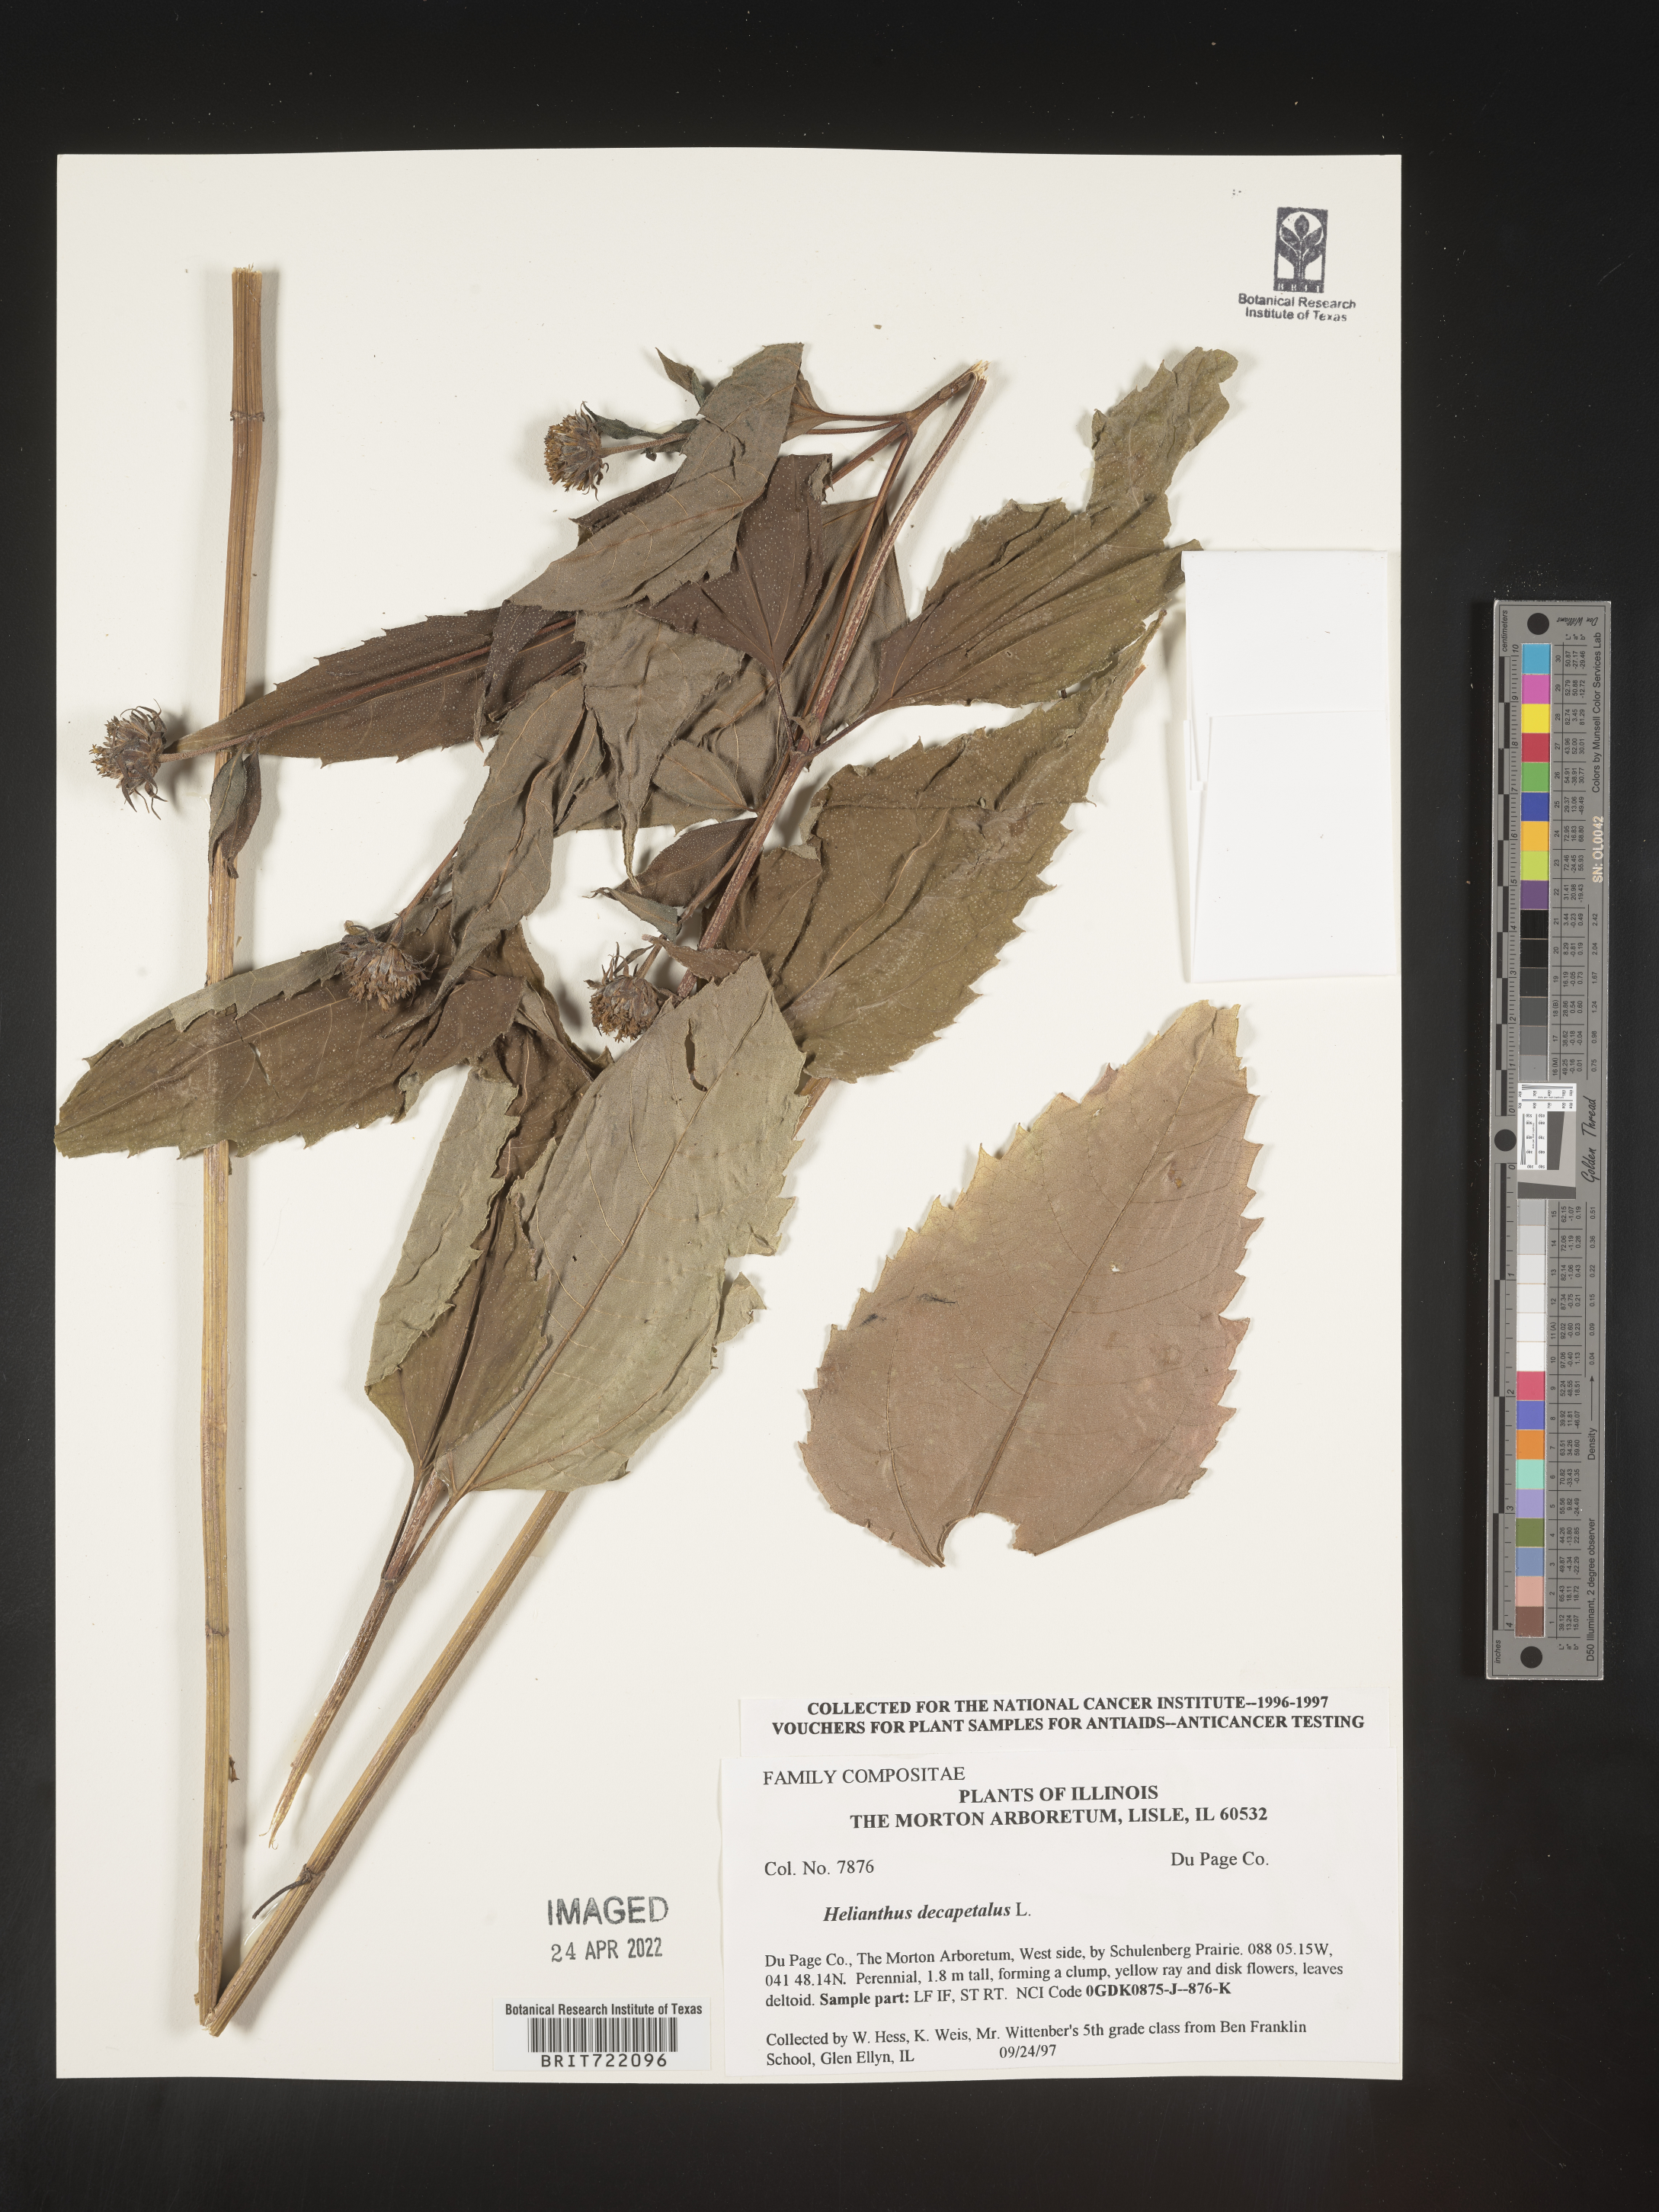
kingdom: Plantae
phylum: Tracheophyta
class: Magnoliopsida
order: Asterales
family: Asteraceae
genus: Helianthus
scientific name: Helianthus decapetalus
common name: Thin-leaved sunflower
